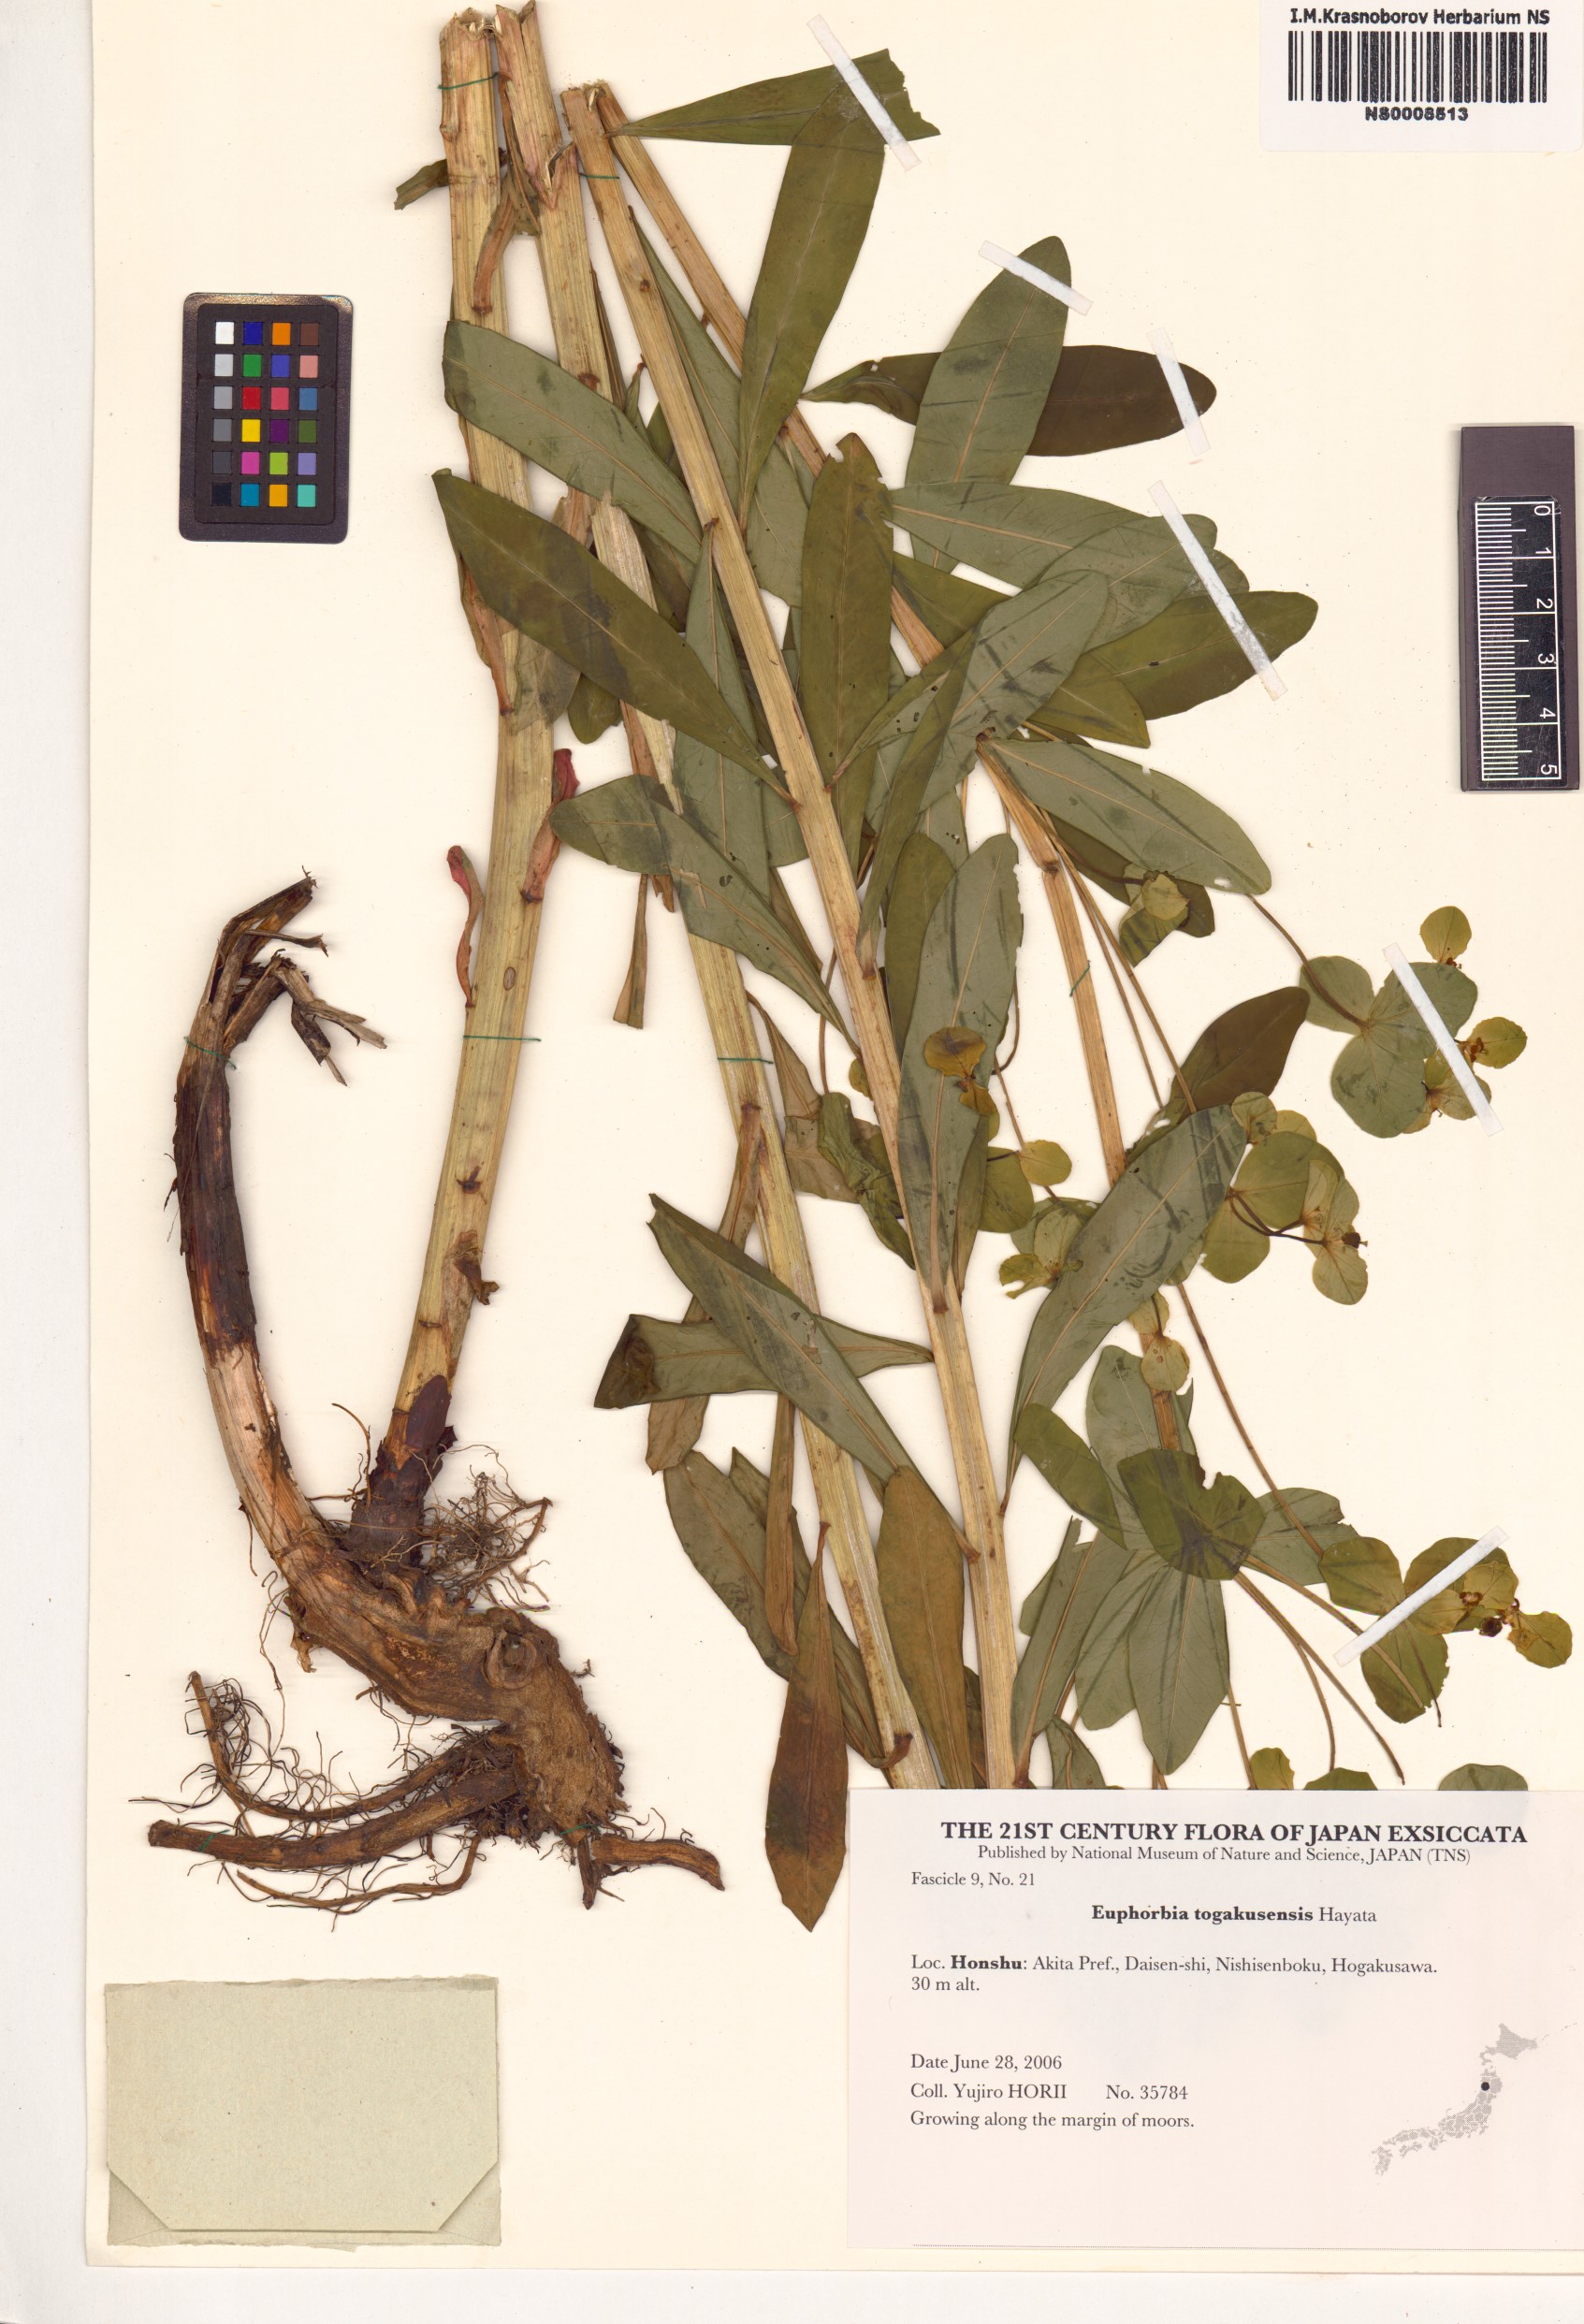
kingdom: Plantae
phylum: Tracheophyta
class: Magnoliopsida
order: Malpighiales
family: Euphorbiaceae
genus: Euphorbia
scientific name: Euphorbia togakusensis
